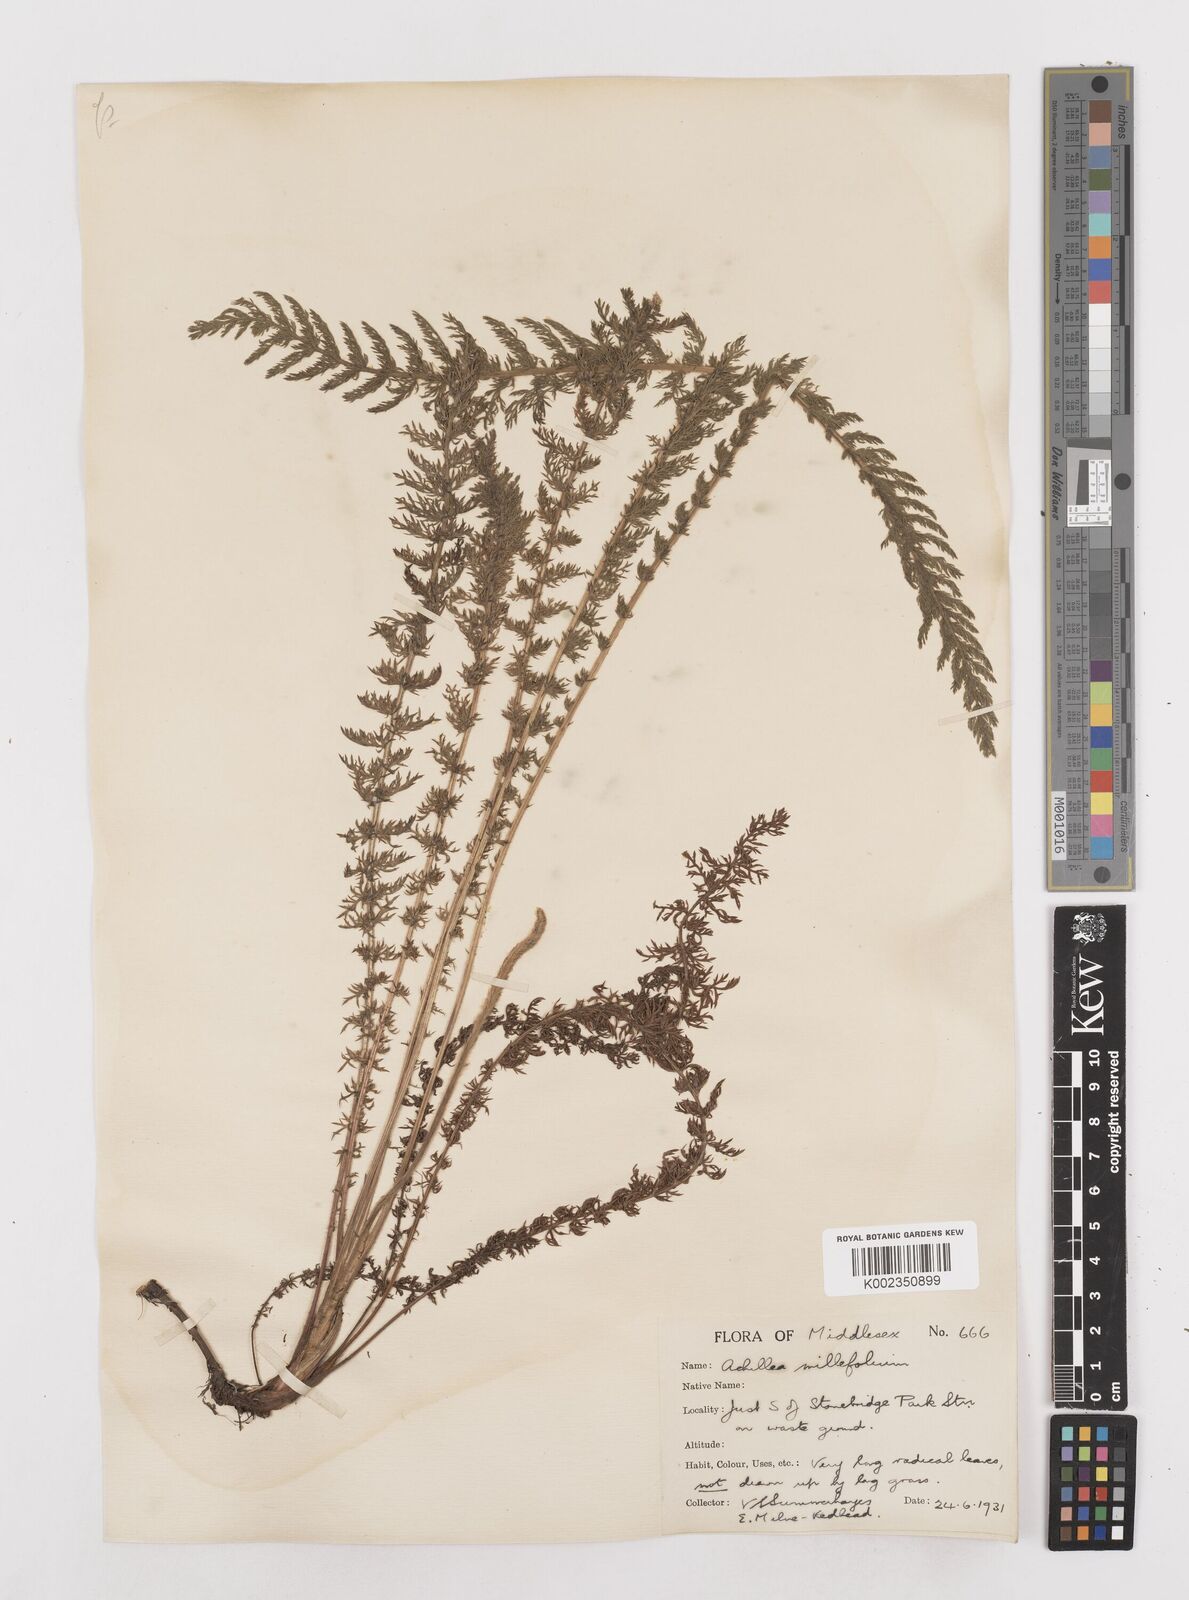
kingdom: Plantae
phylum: Tracheophyta
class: Magnoliopsida
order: Asterales
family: Asteraceae
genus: Achillea
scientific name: Achillea millefolium
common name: Yarrow
